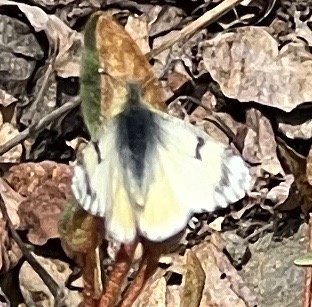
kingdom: Animalia
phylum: Arthropoda
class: Insecta
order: Lepidoptera
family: Pieridae
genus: Euchloe
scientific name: Euchloe ausonides
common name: Large Marble
